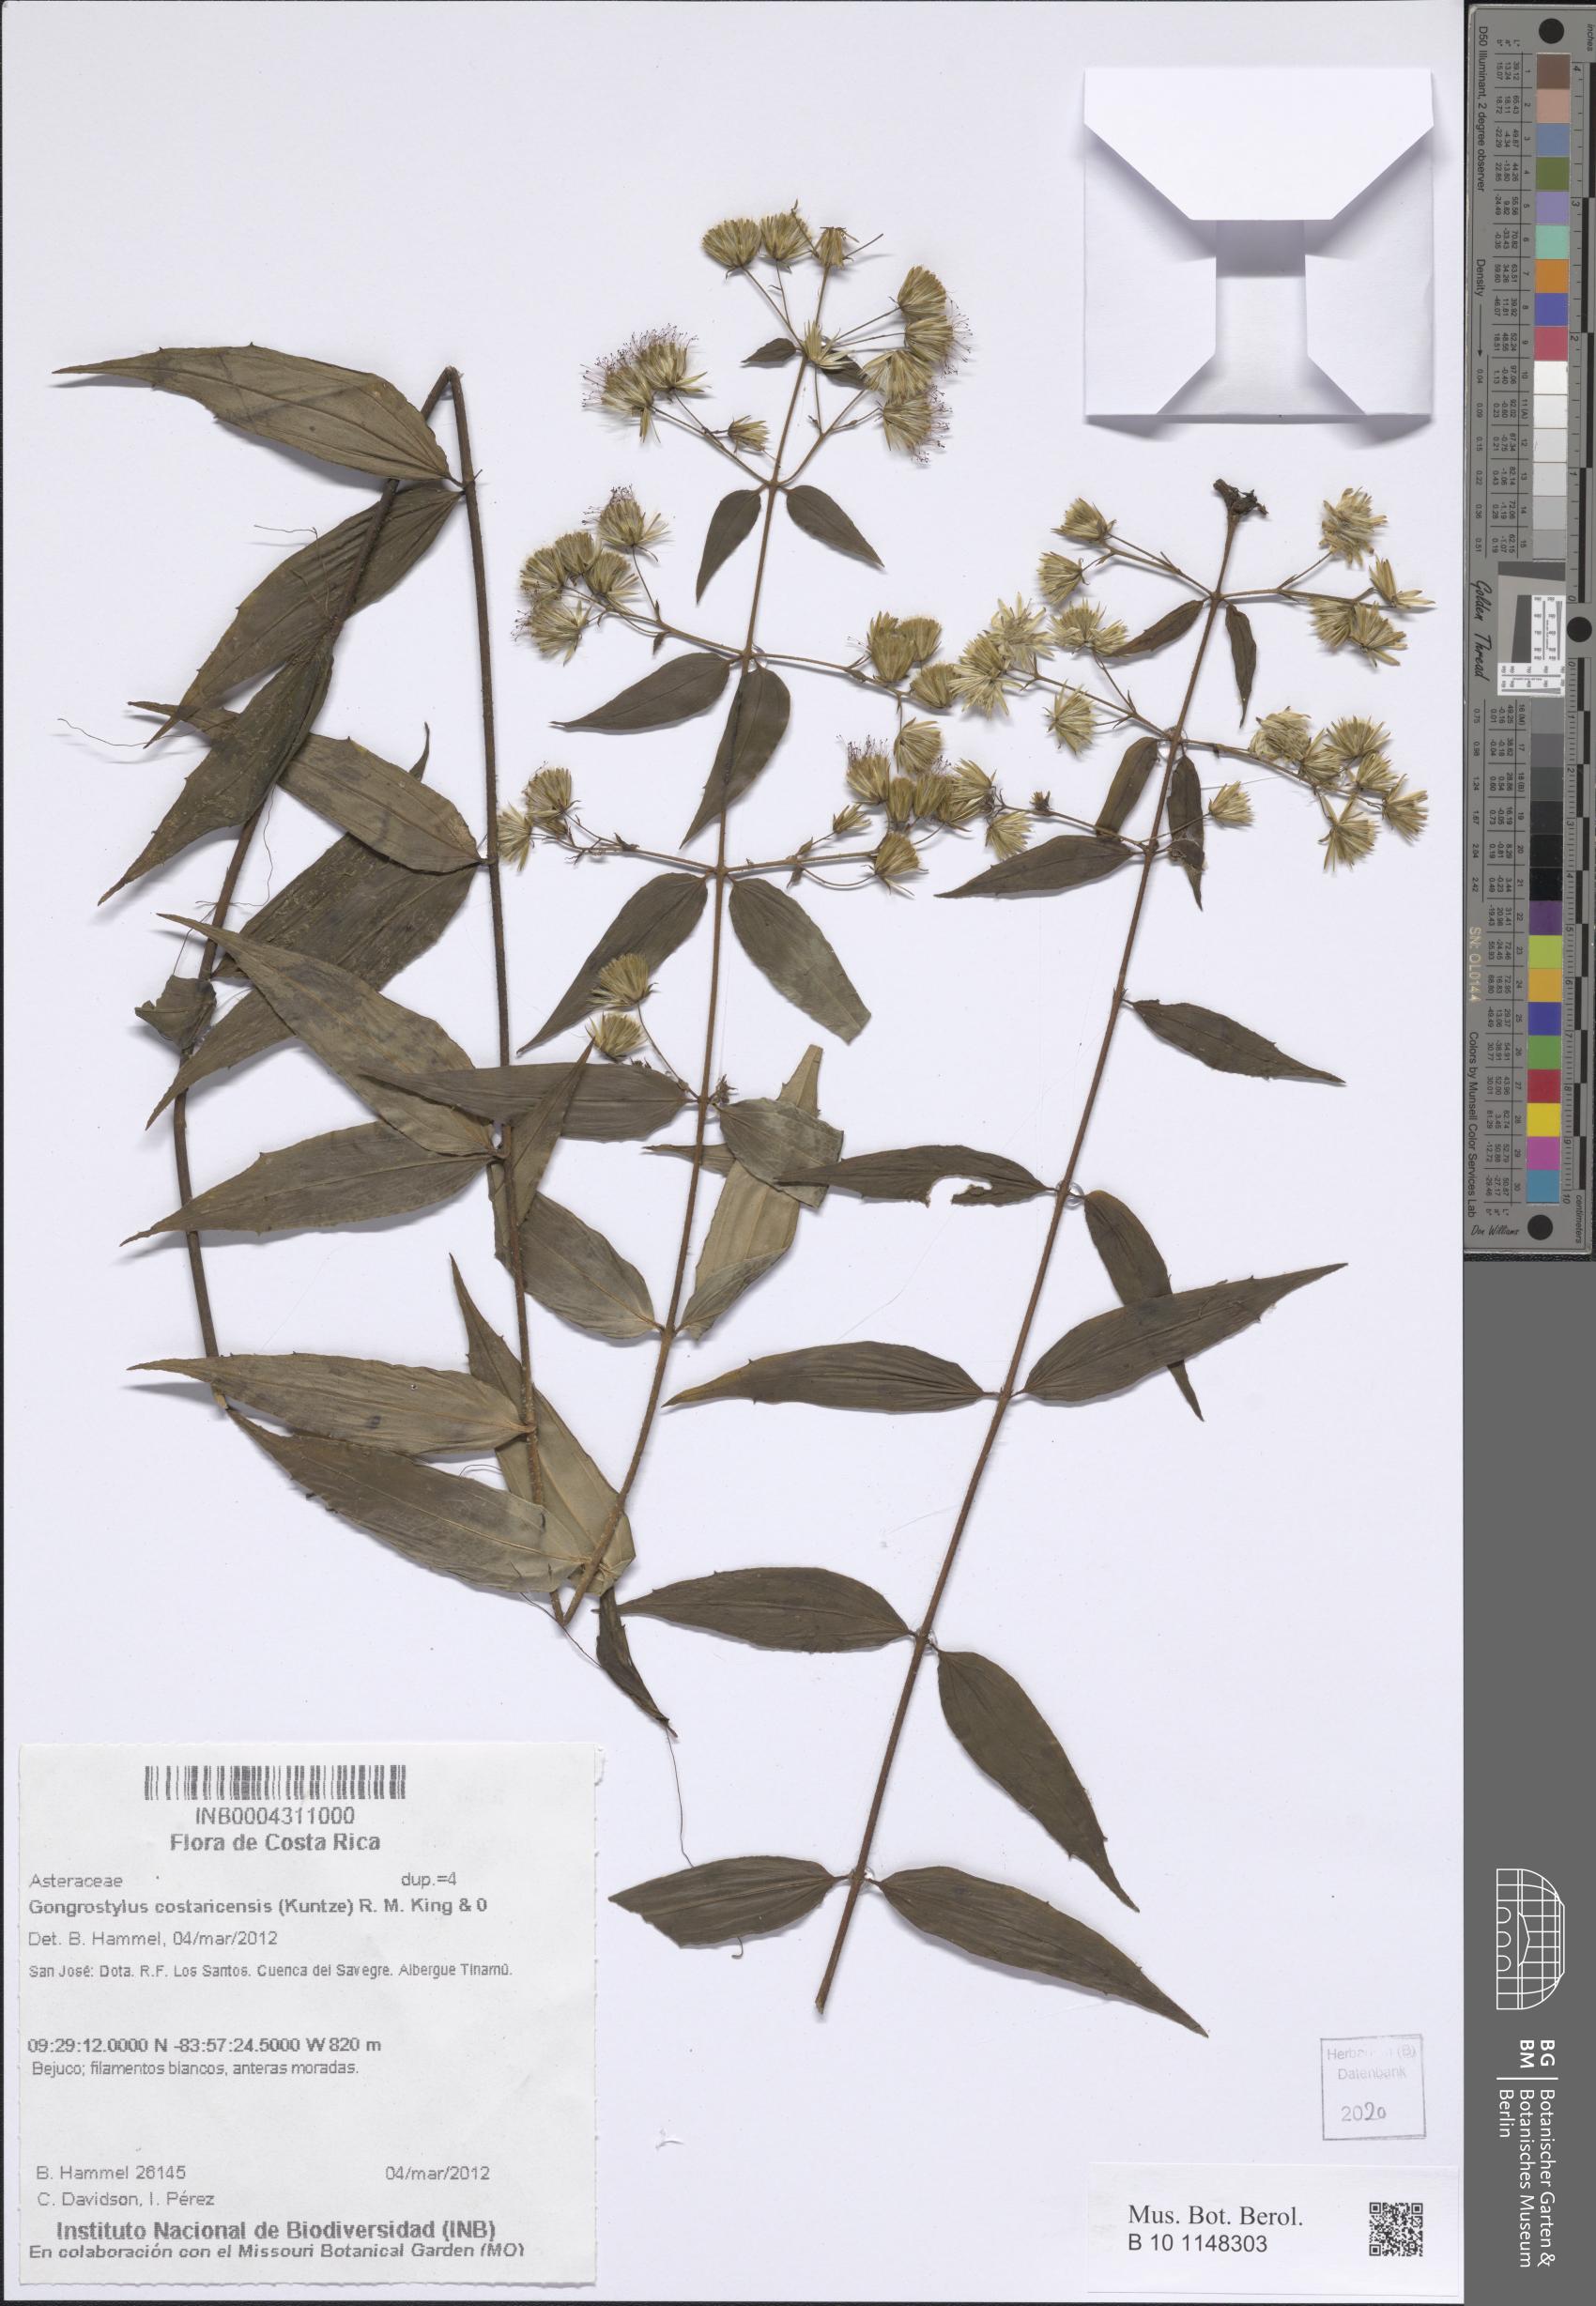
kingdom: Plantae
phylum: Tracheophyta
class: Magnoliopsida
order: Asterales
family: Asteraceae
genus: Gongrostylus
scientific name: Gongrostylus costaricensis
